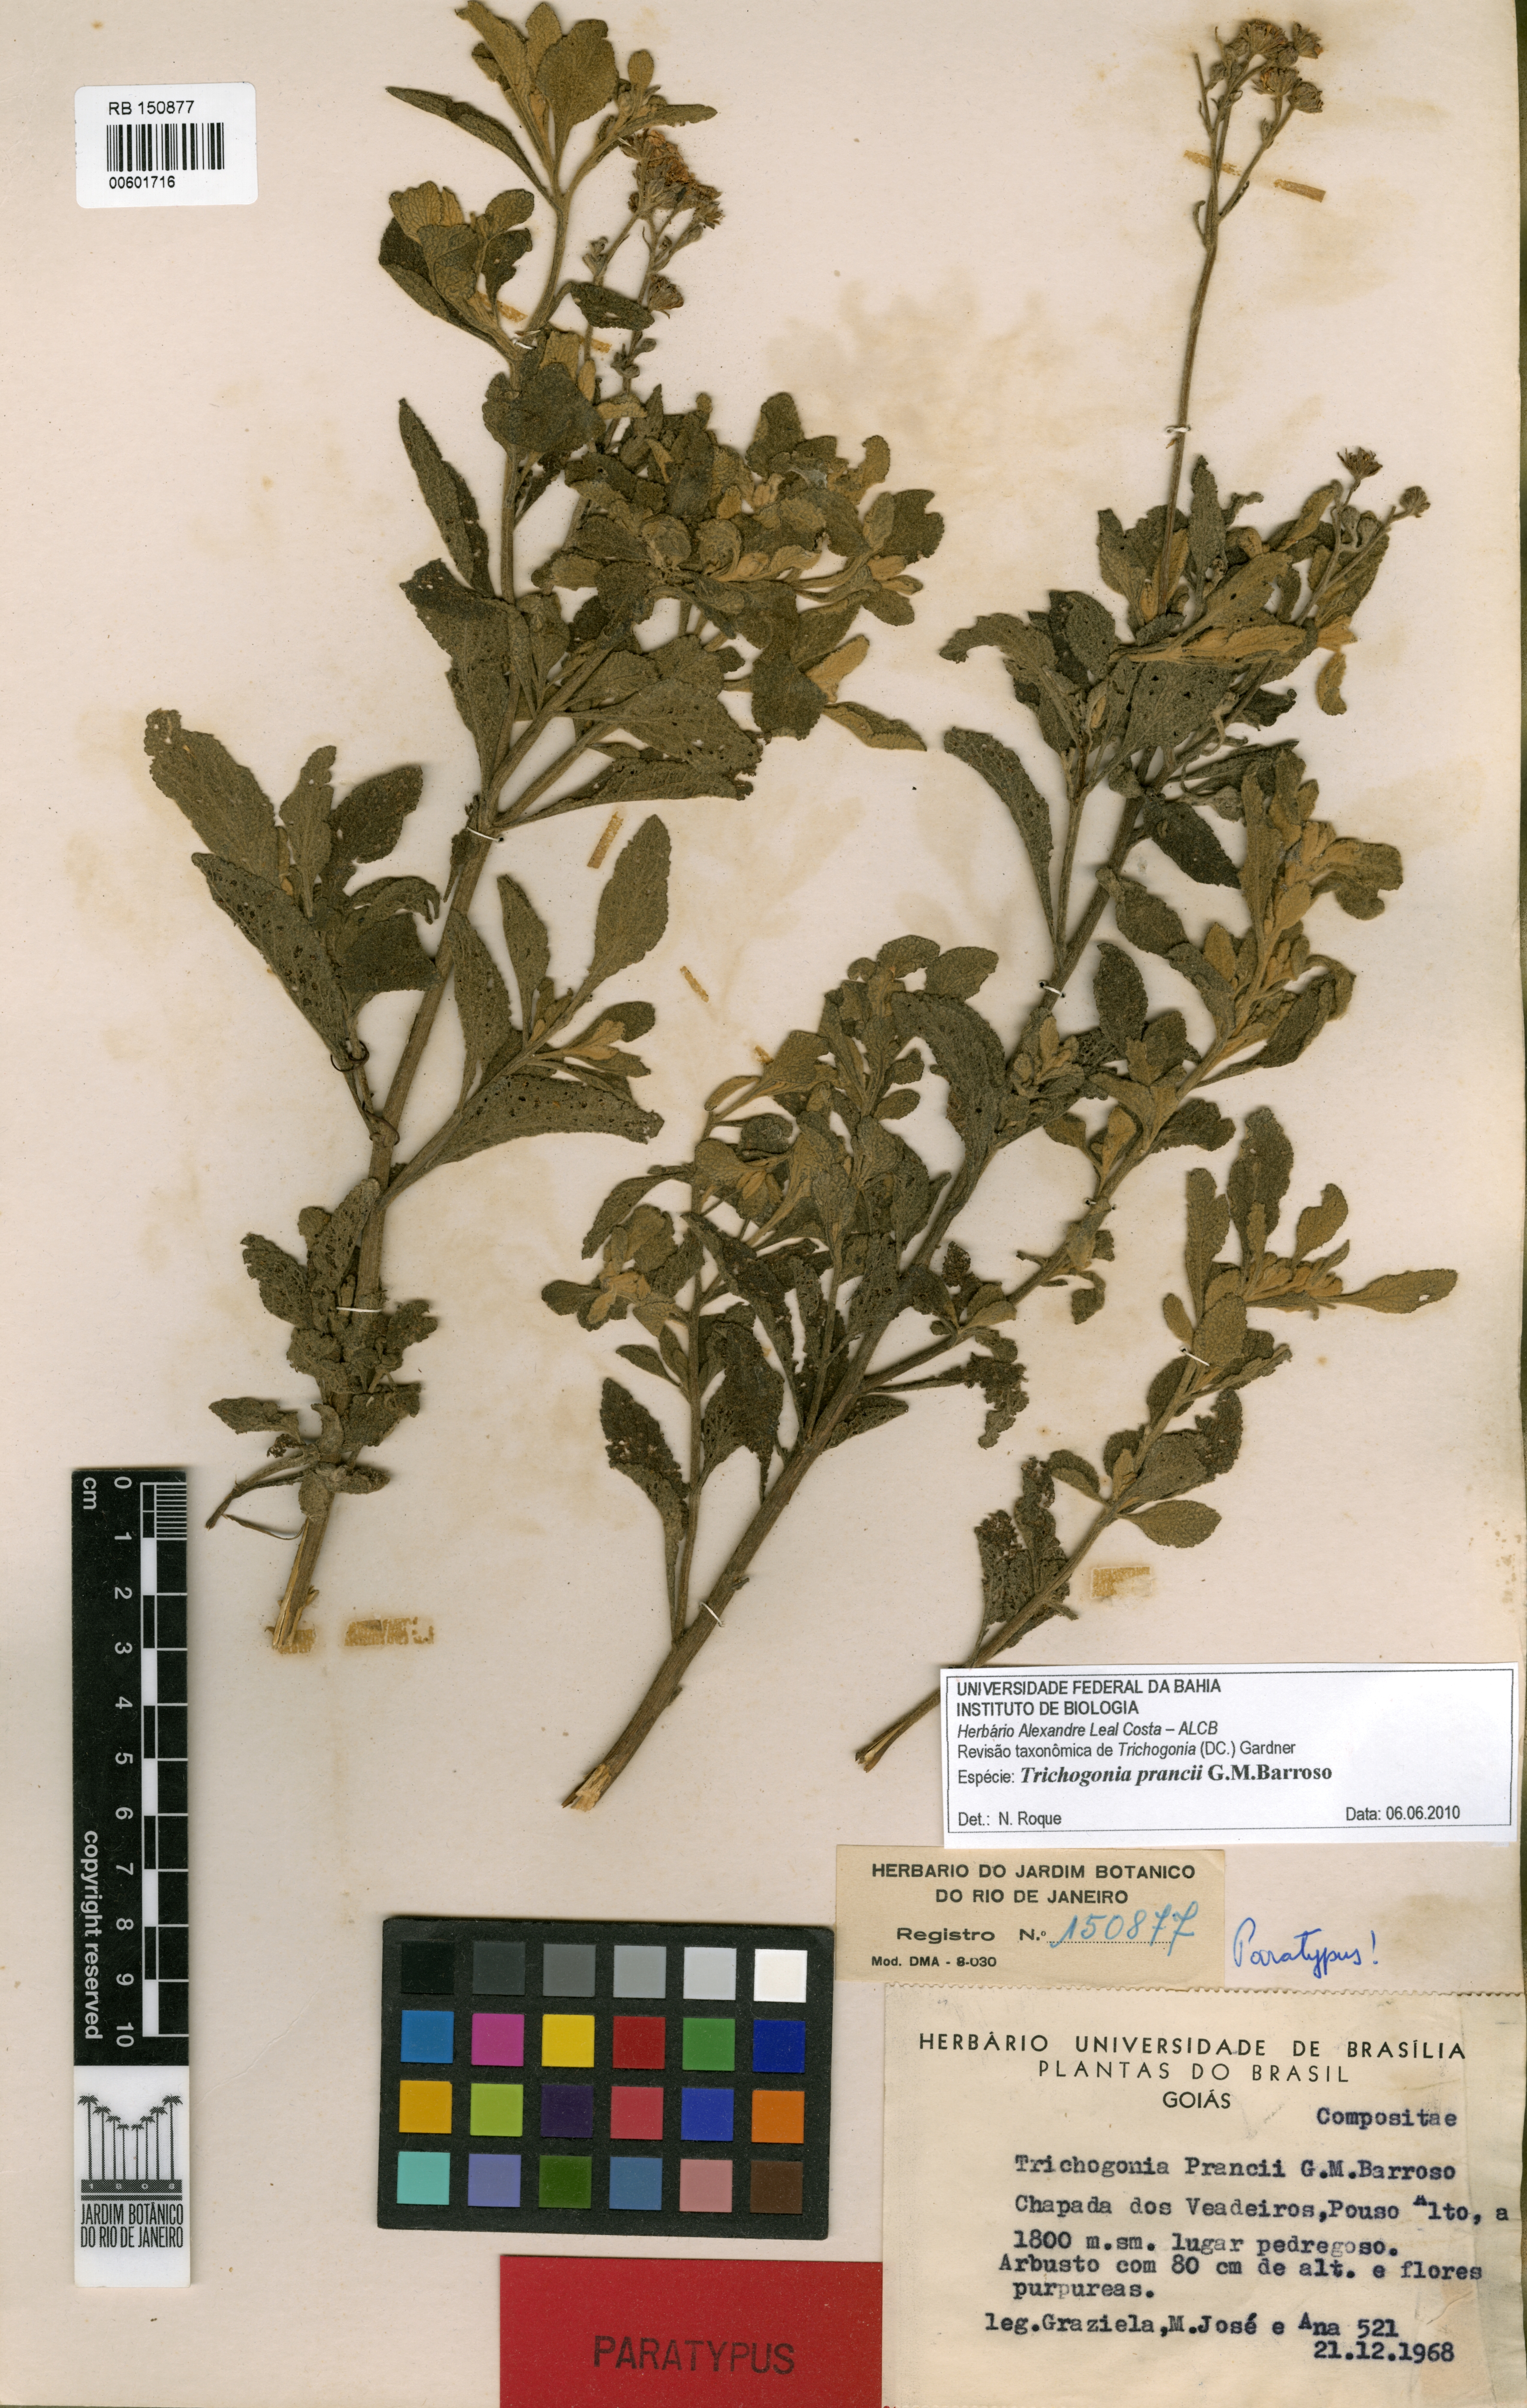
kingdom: Plantae
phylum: Tracheophyta
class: Magnoliopsida
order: Asterales
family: Asteraceae
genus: Trichogonia
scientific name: Trichogonia prancei
